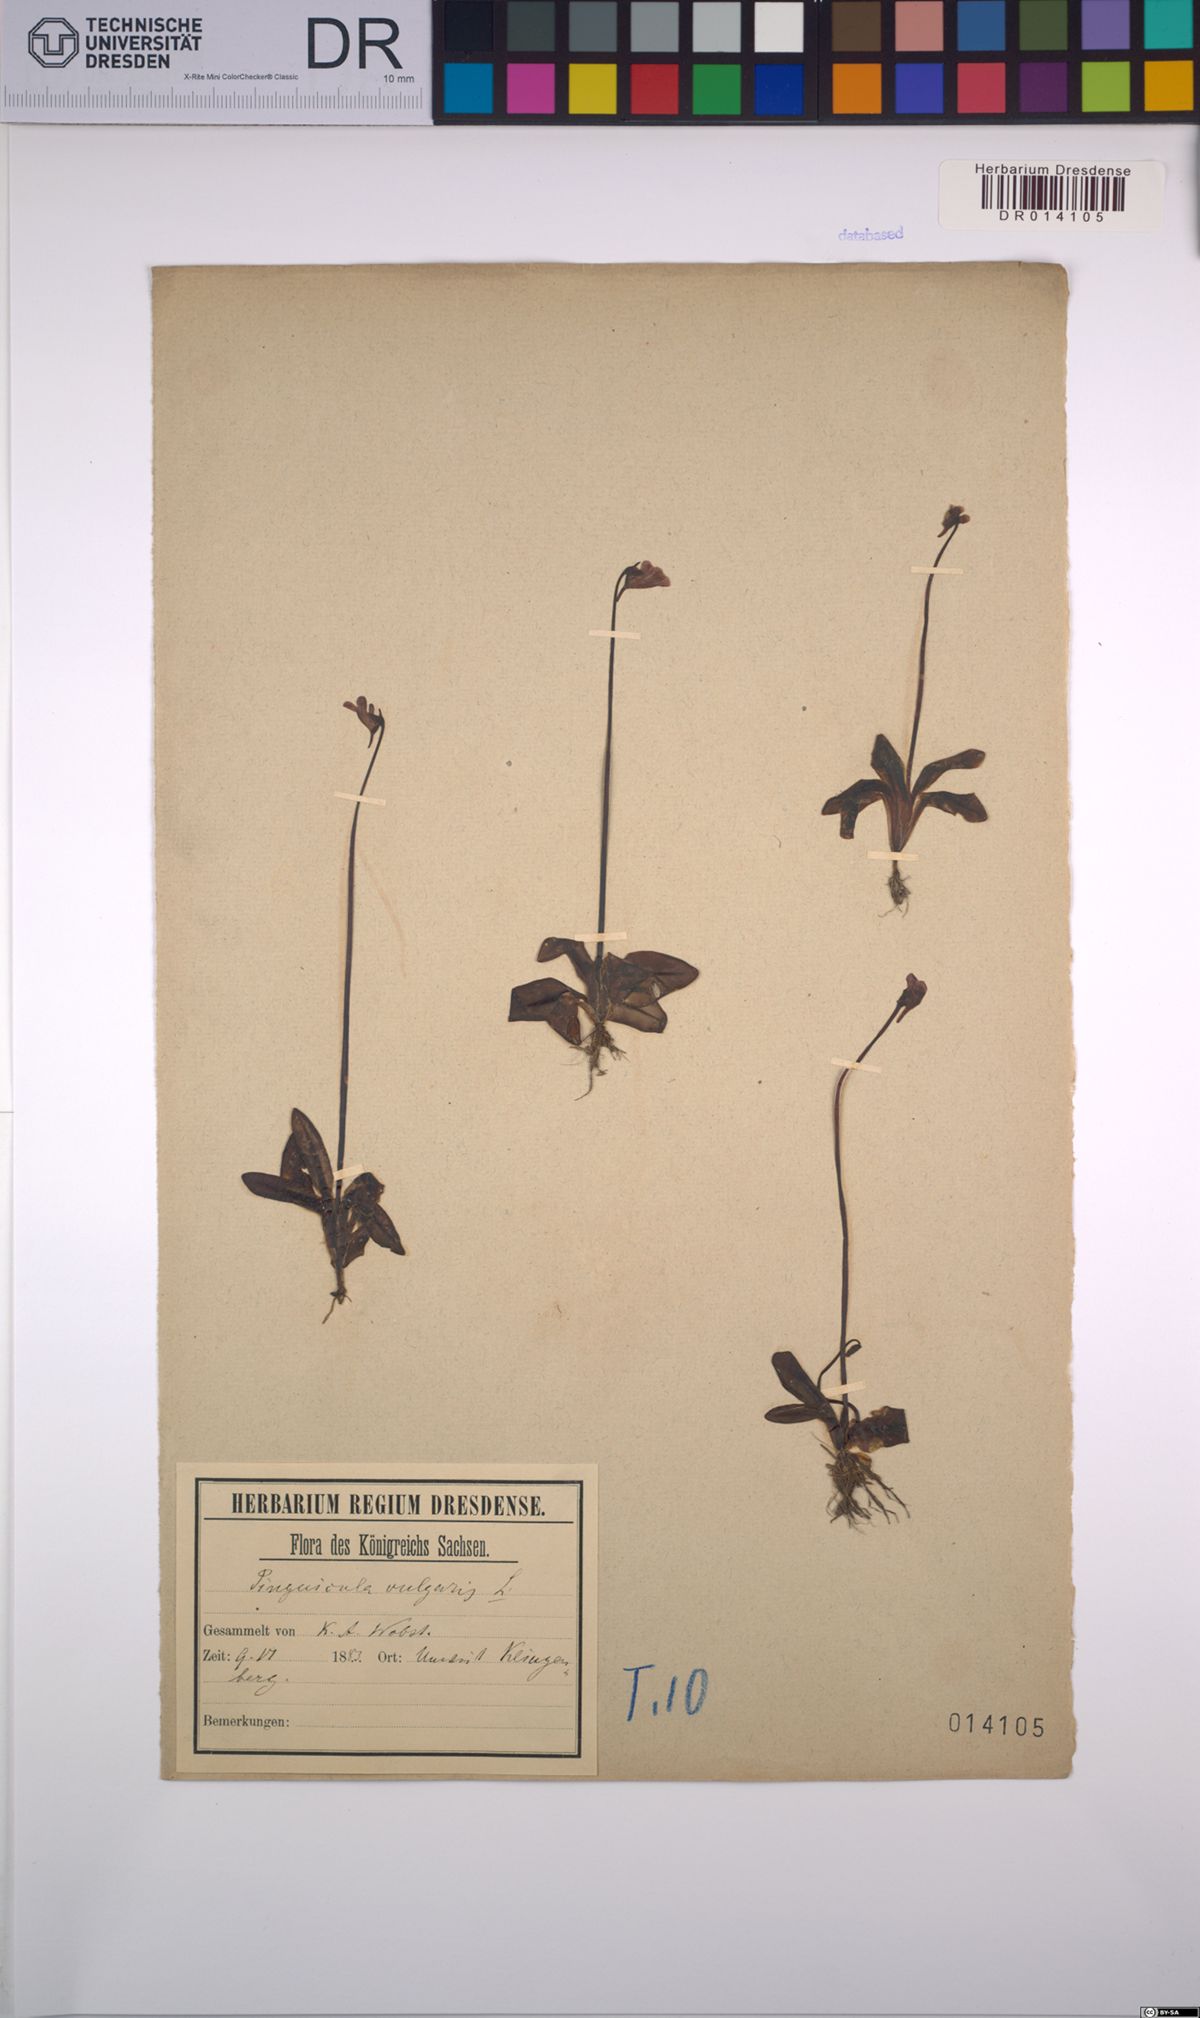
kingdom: Plantae
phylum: Tracheophyta
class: Magnoliopsida
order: Lamiales
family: Lentibulariaceae
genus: Pinguicula
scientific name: Pinguicula vulgaris
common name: Common butterwort
